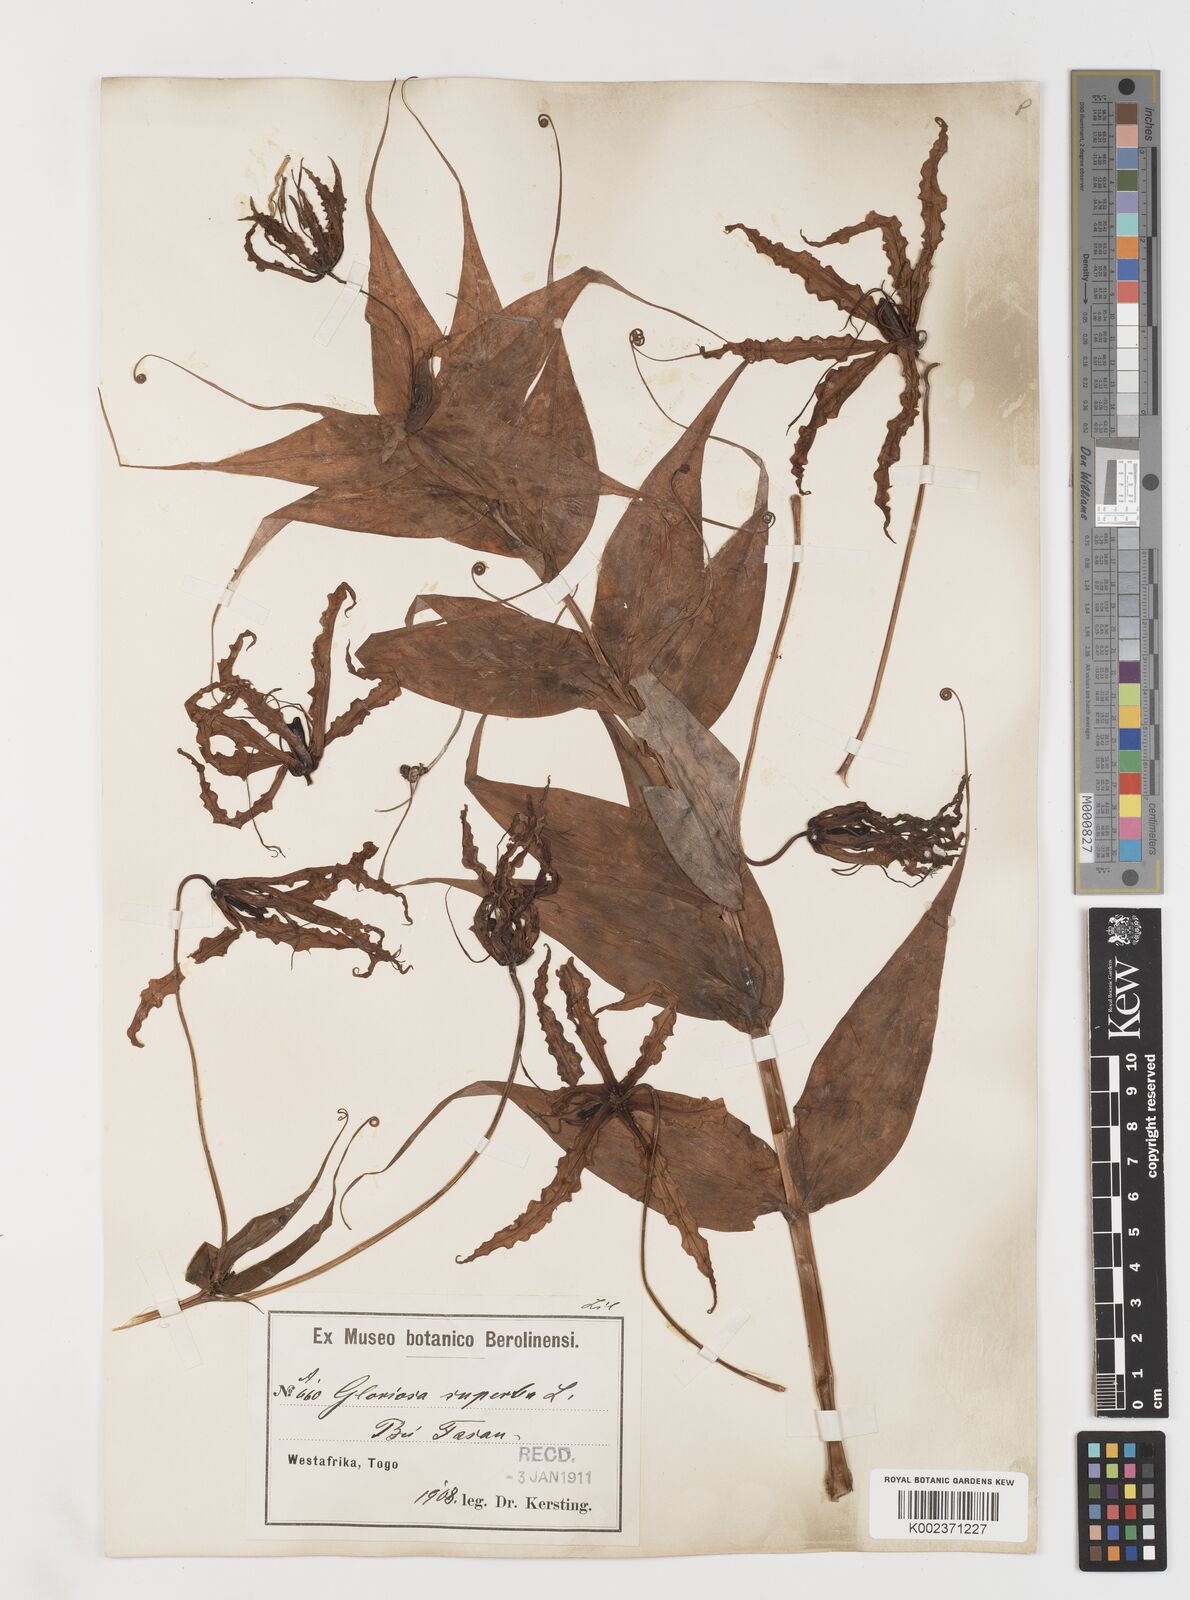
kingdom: Plantae
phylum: Tracheophyta
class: Liliopsida
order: Liliales
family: Colchicaceae
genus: Gloriosa
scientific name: Gloriosa superba
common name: Flame lily
